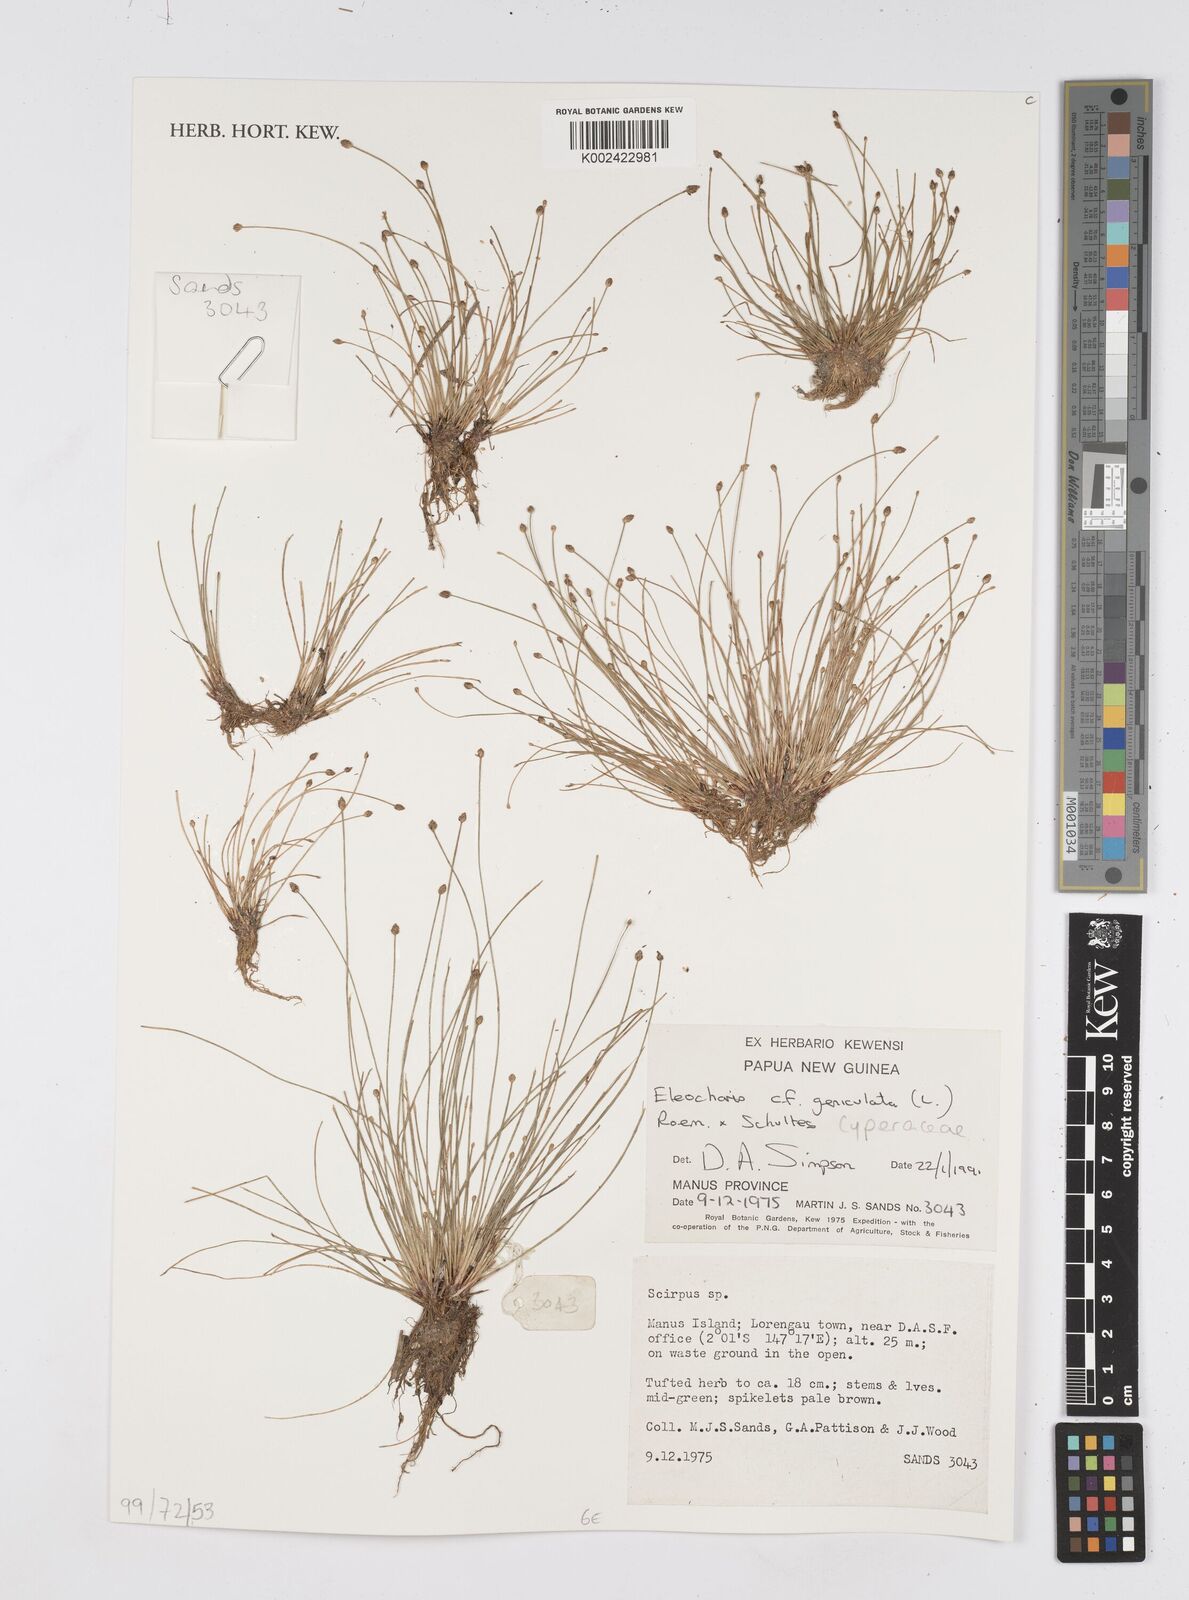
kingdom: Plantae
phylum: Tracheophyta
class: Liliopsida
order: Poales
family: Cyperaceae
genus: Eleocharis
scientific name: Eleocharis geniculata
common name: Canada spikesedge
